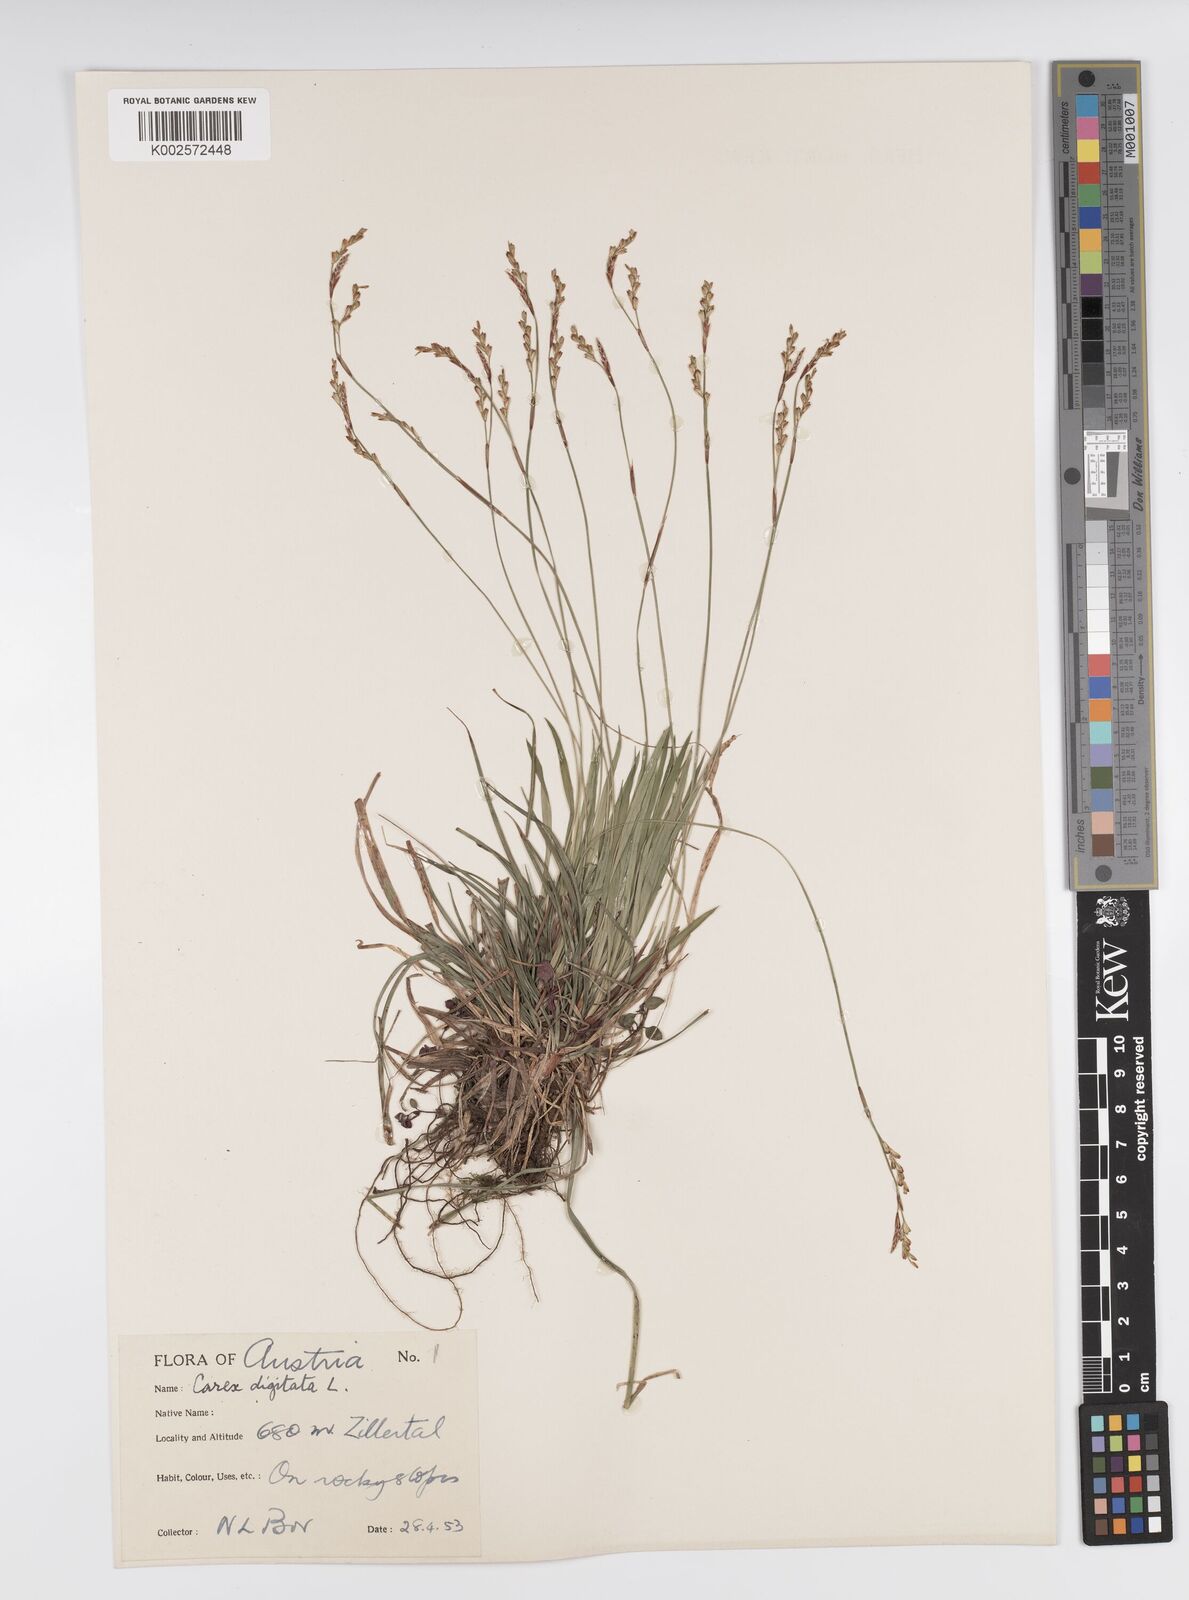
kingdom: Plantae
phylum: Tracheophyta
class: Liliopsida
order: Poales
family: Cyperaceae
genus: Carex
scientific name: Carex digitata
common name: Fingered sedge
